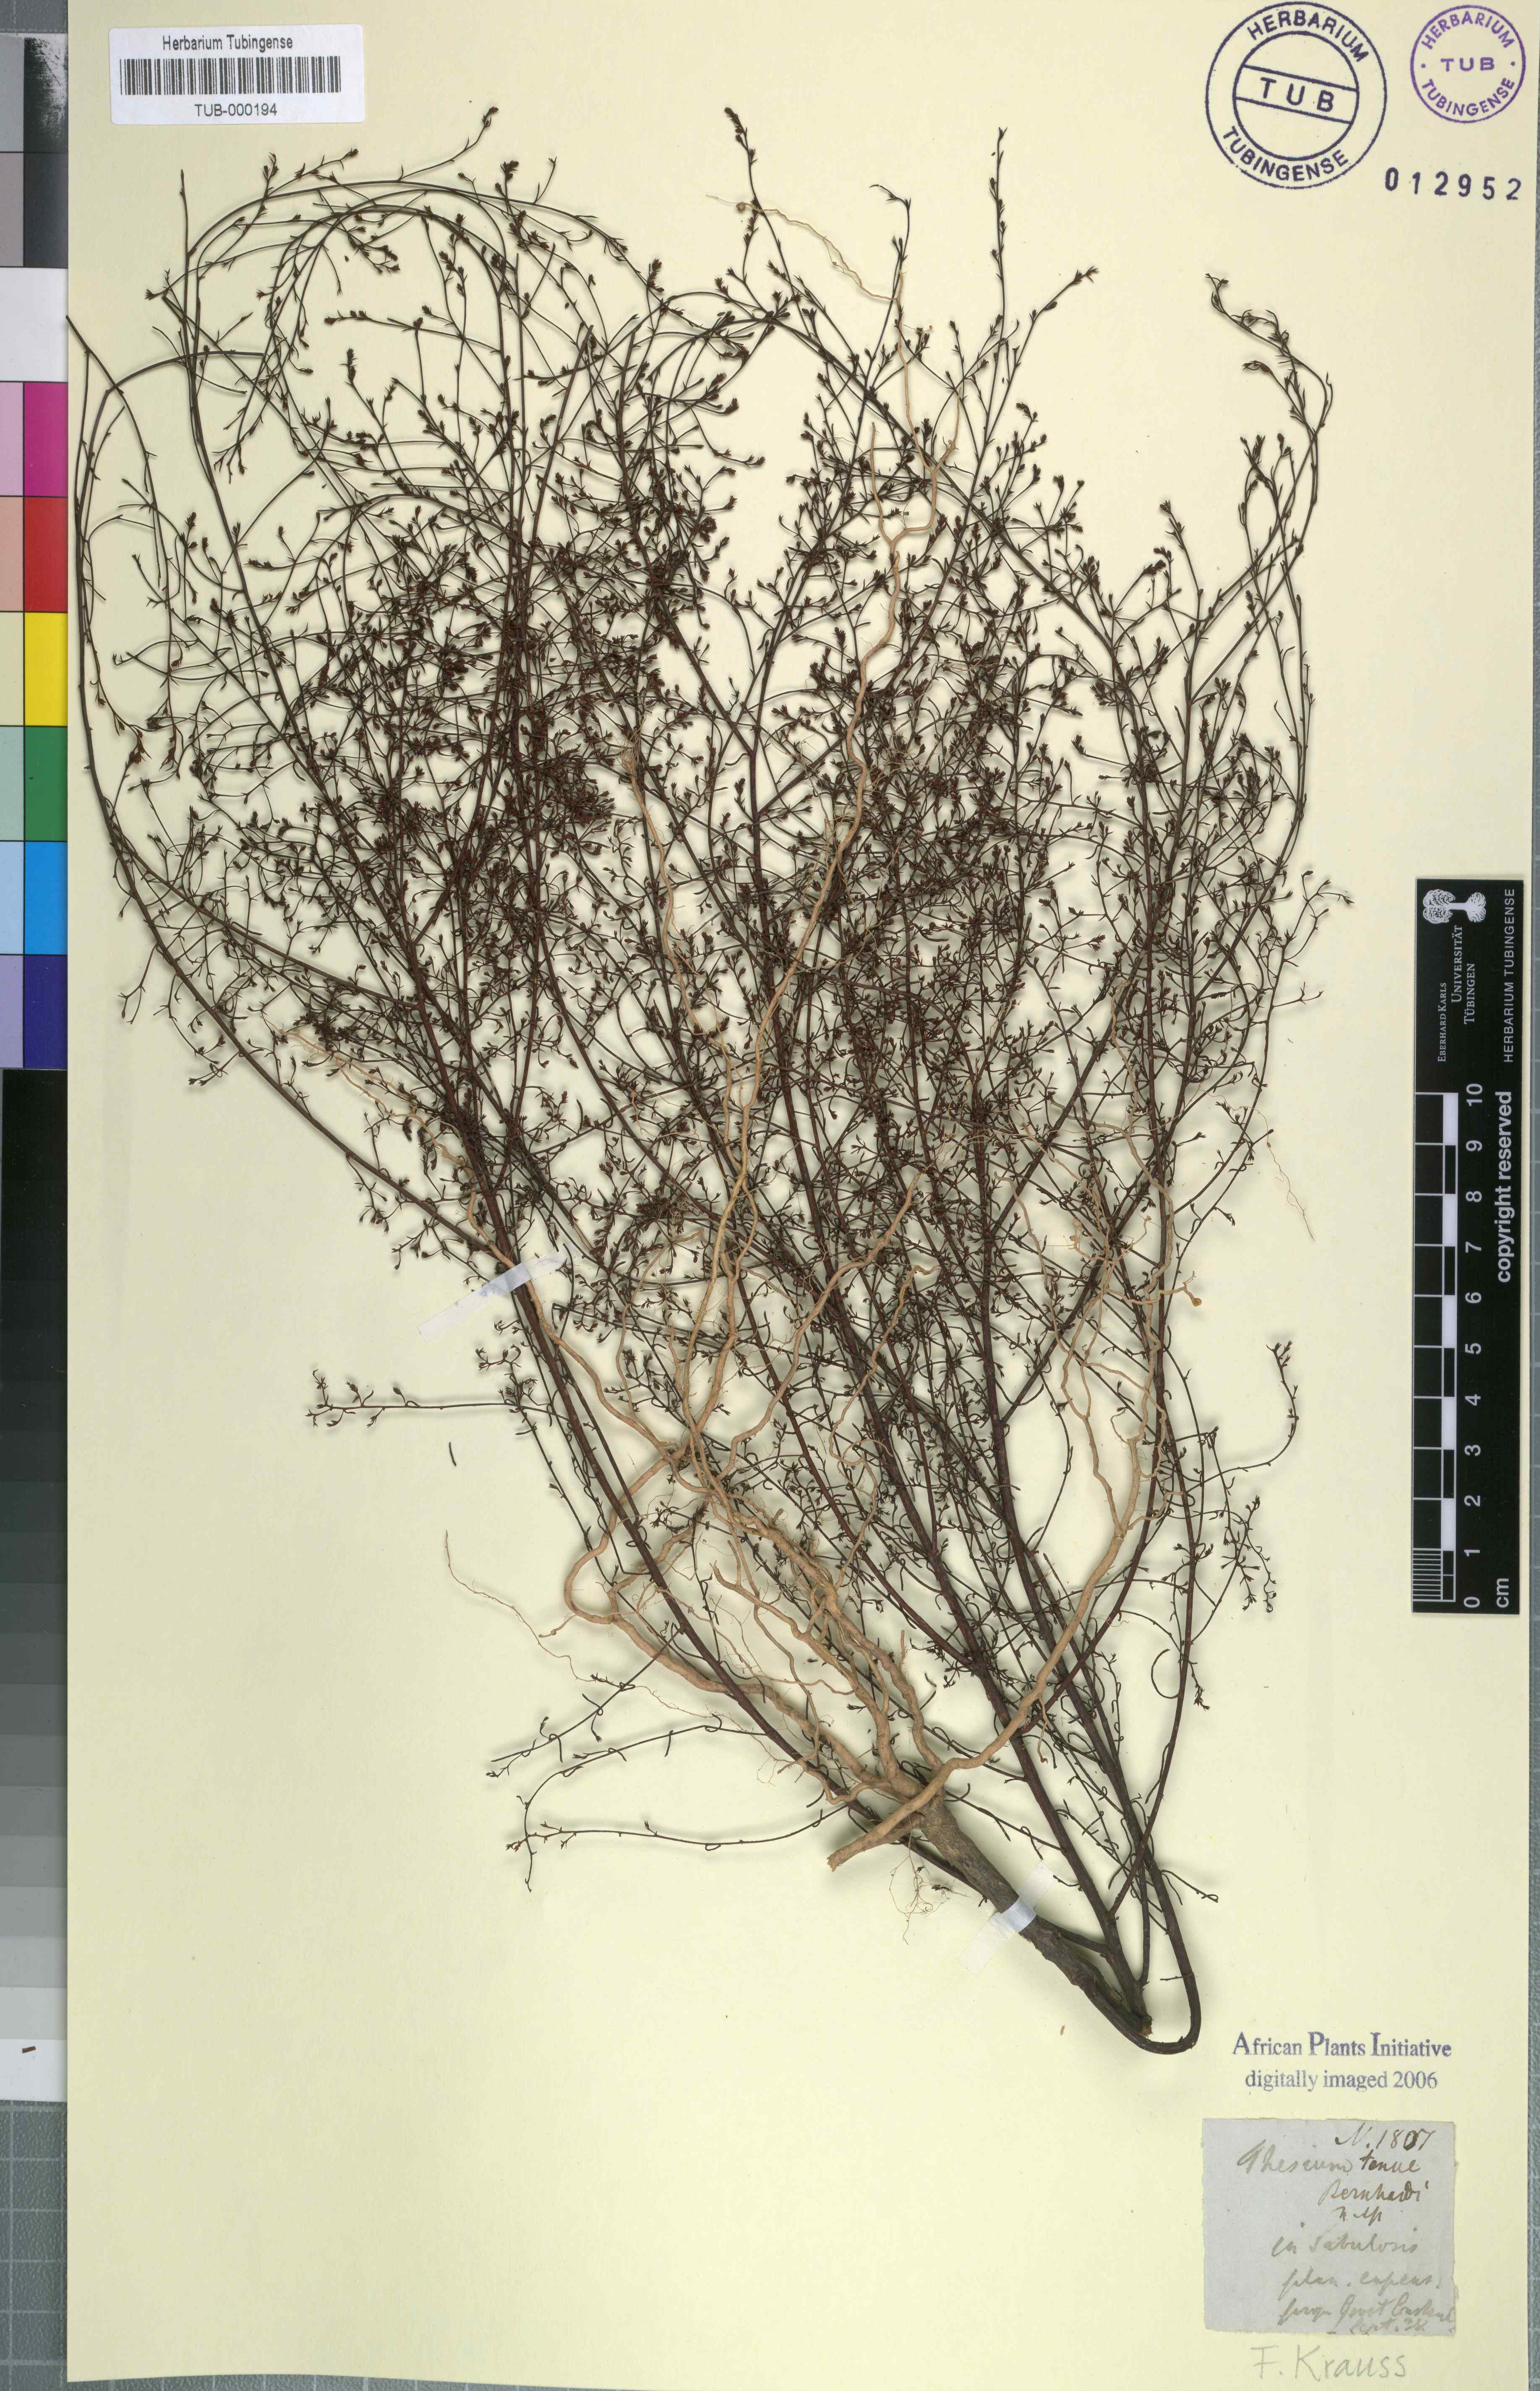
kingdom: Plantae
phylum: Tracheophyta
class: Magnoliopsida
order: Santalales
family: Thesiaceae
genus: Thesium
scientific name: Thesium juncifolium
